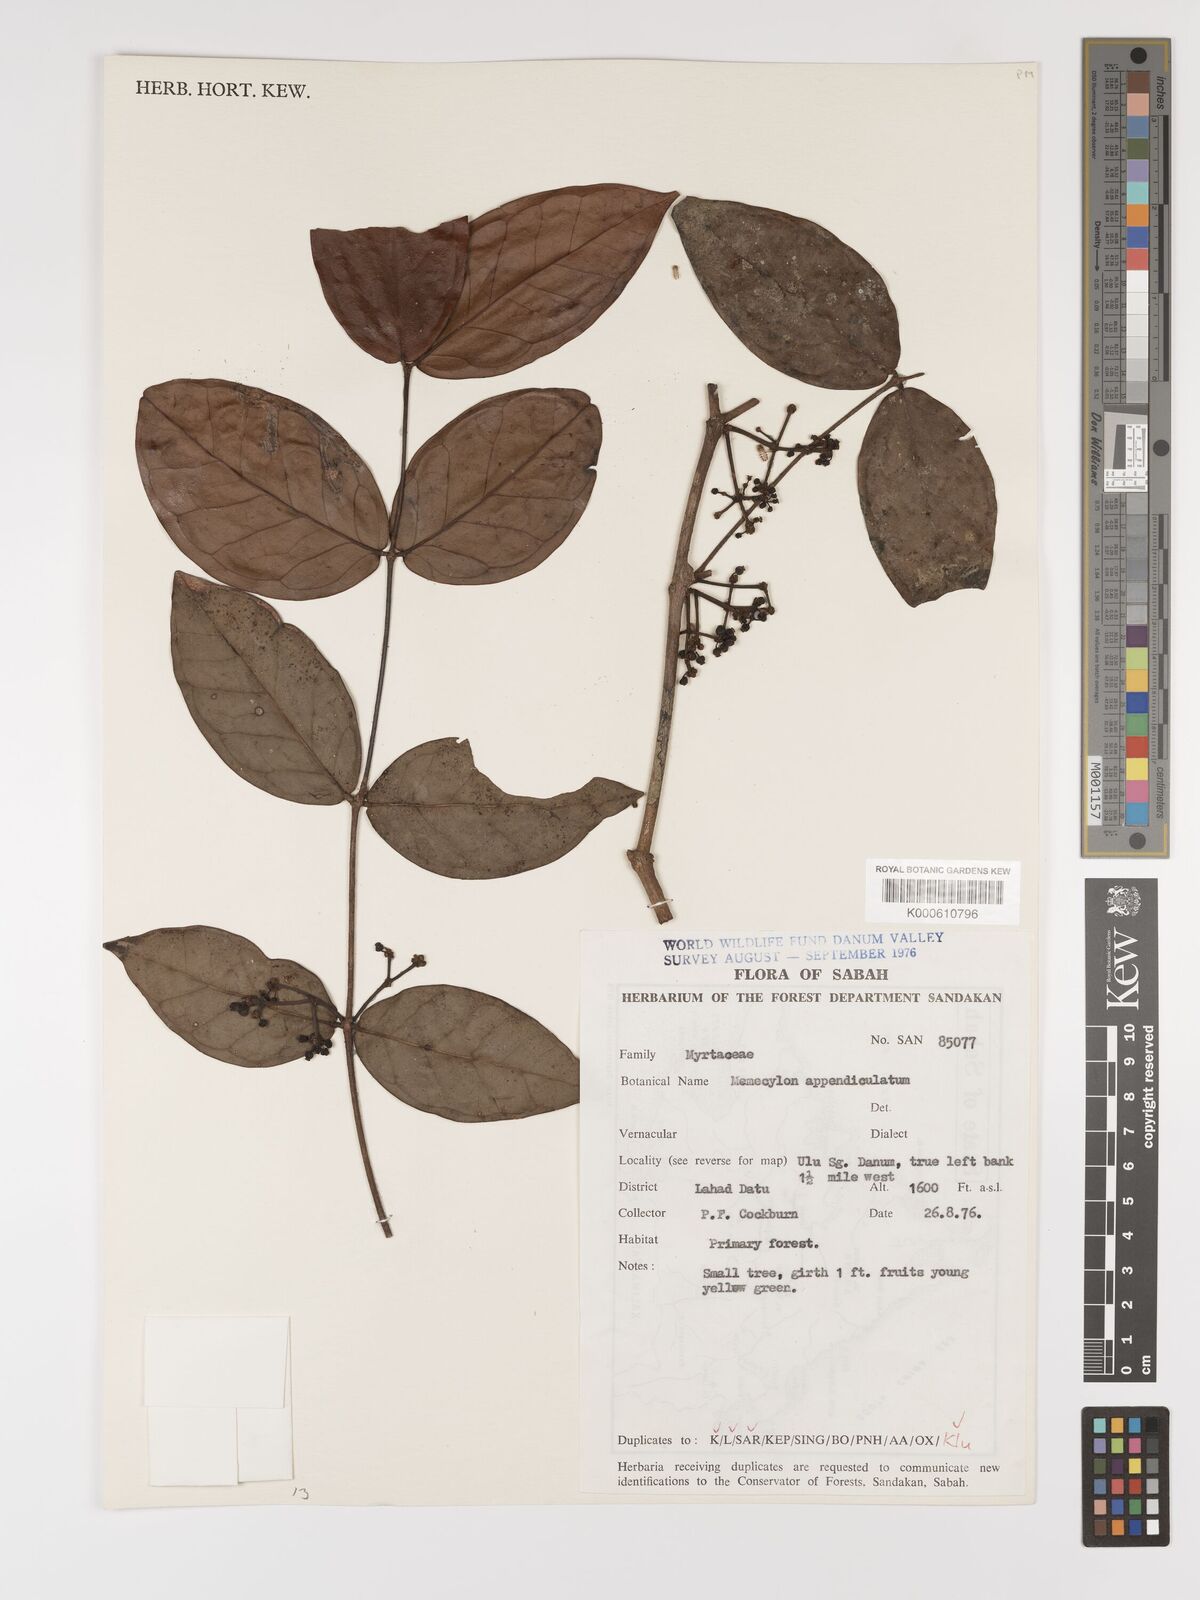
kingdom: Plantae
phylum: Tracheophyta
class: Magnoliopsida
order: Myrtales
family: Melastomataceae
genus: Memecylon
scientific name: Memecylon paniculatum
